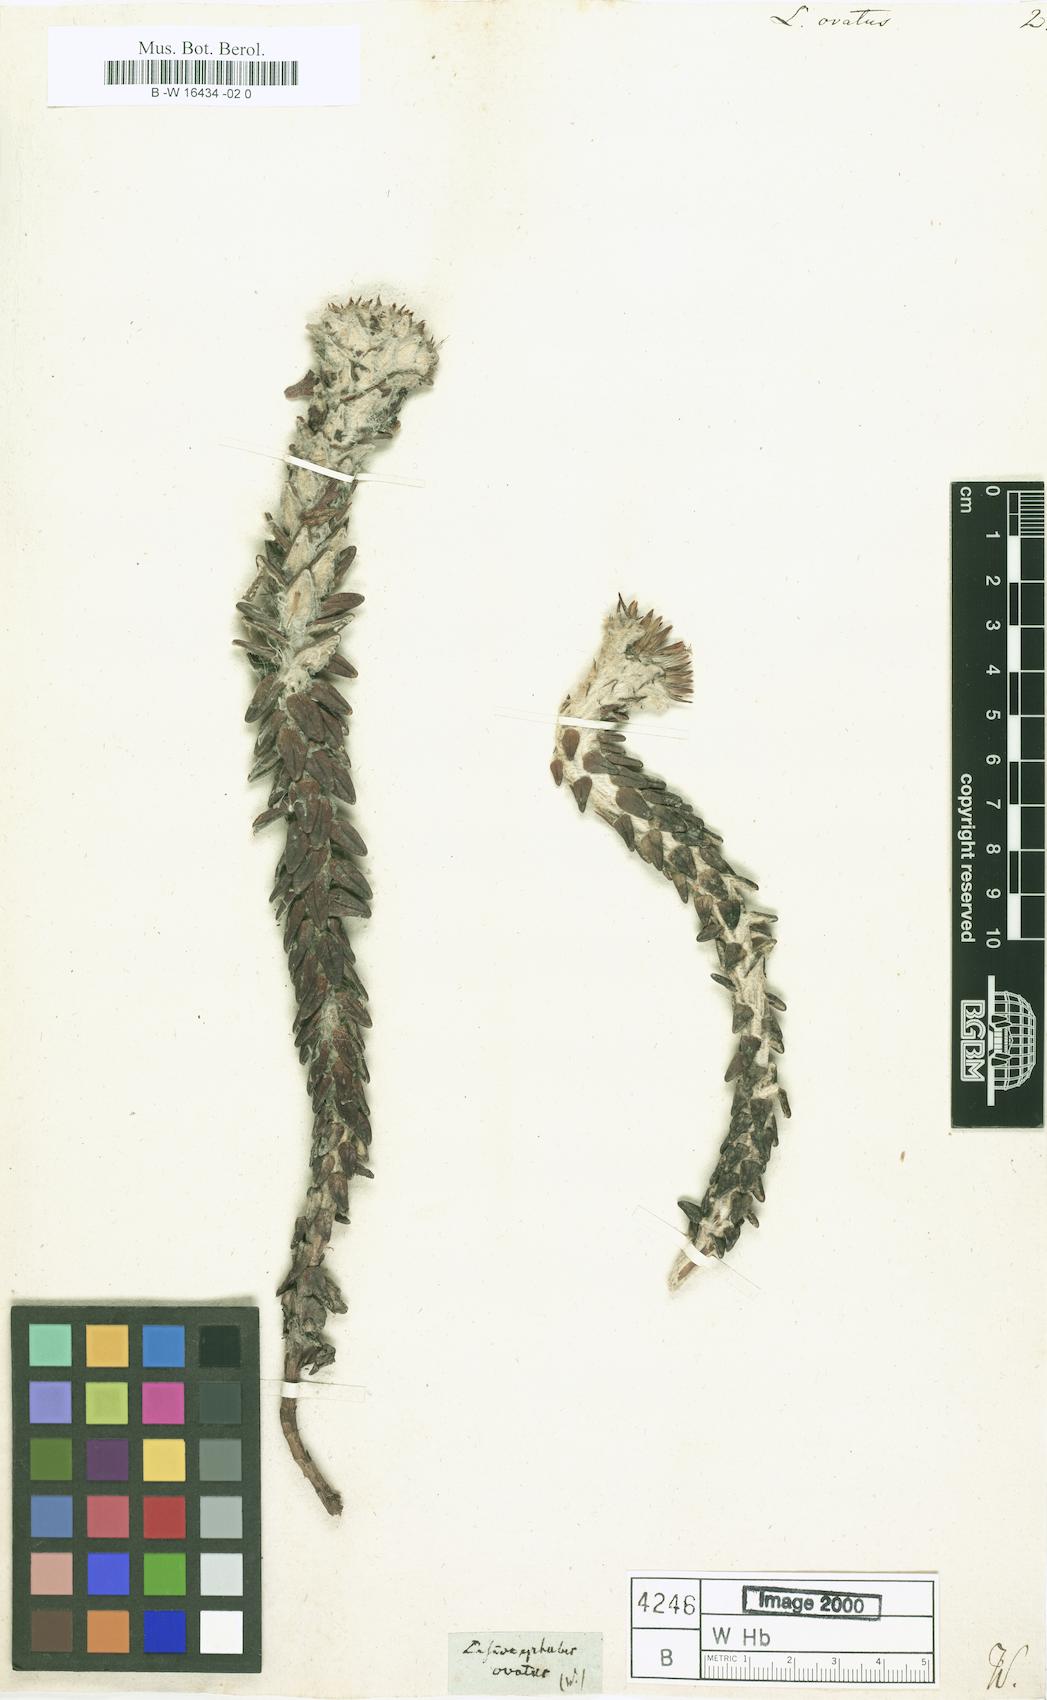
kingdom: Plantae
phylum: Tracheophyta
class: Magnoliopsida
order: Asterales
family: Asteraceae
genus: Lasiocephalus
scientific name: Lasiocephalus ovatus
